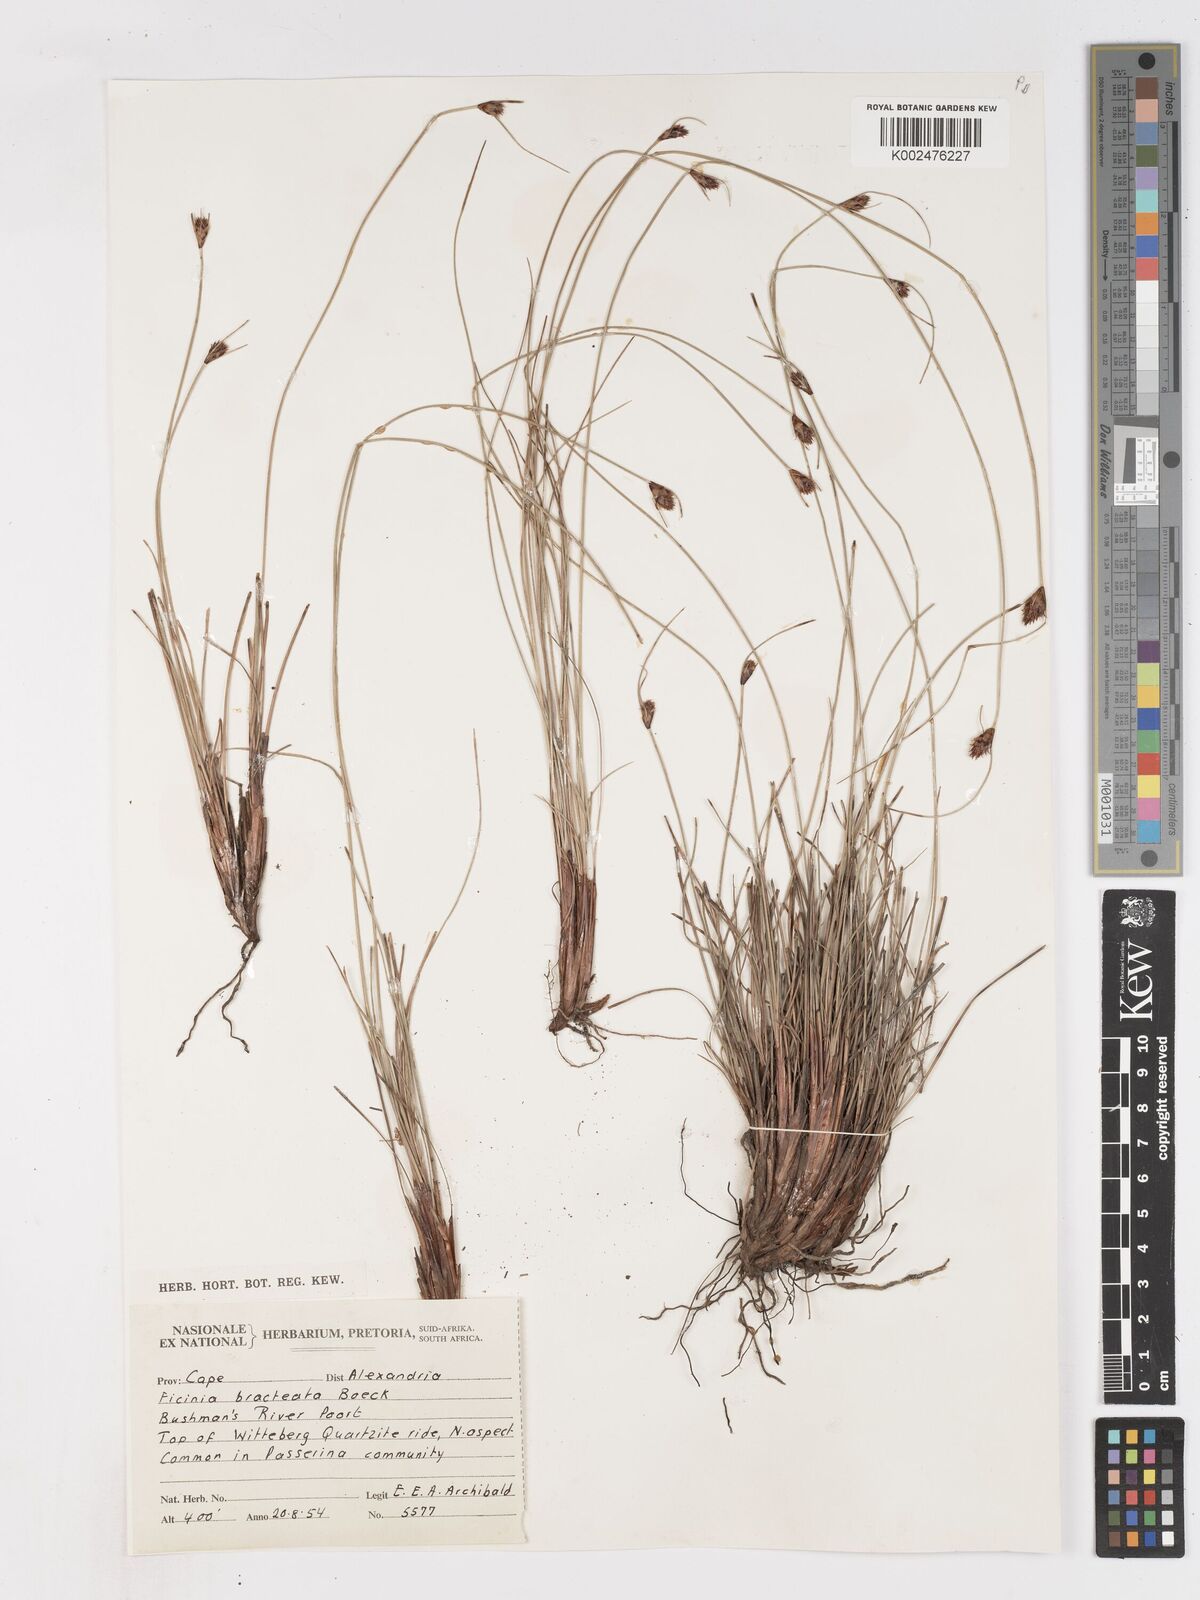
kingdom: Plantae
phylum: Tracheophyta
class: Liliopsida
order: Poales
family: Cyperaceae
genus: Ficinia
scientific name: Ficinia nigrescens
